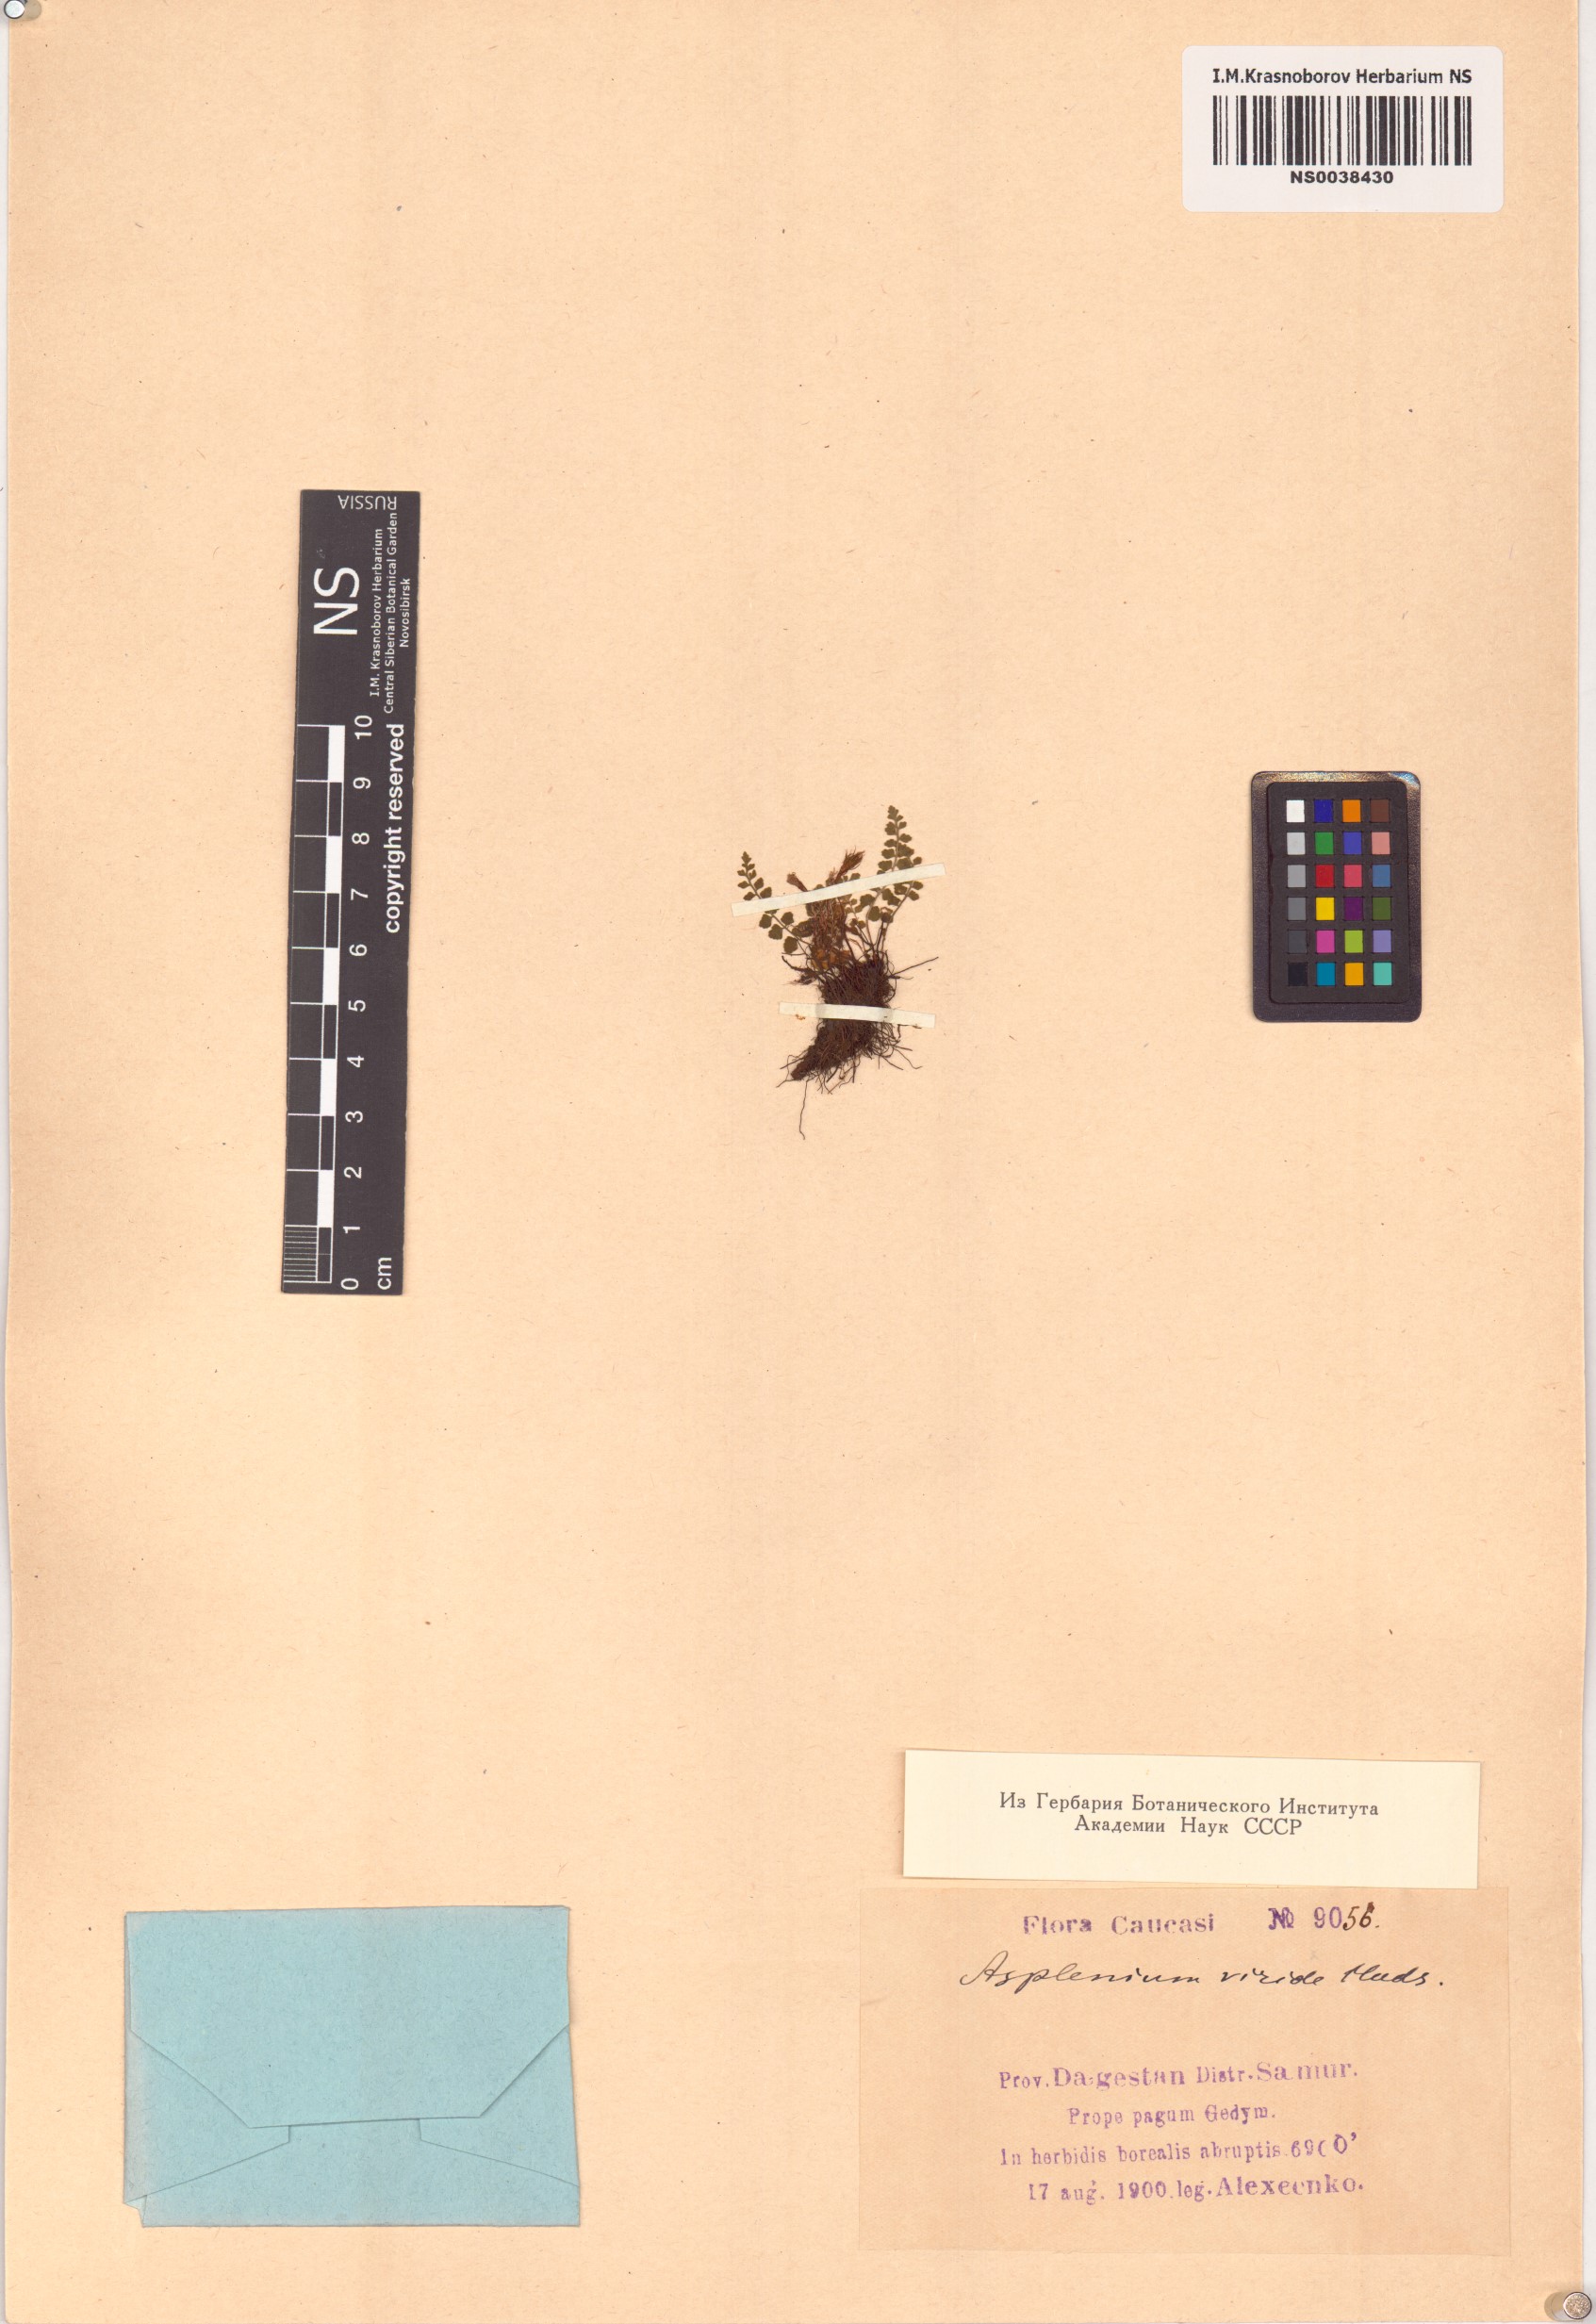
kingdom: Plantae
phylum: Tracheophyta
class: Polypodiopsida
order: Polypodiales
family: Aspleniaceae
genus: Asplenium
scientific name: Asplenium viride
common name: Green spleenwort
